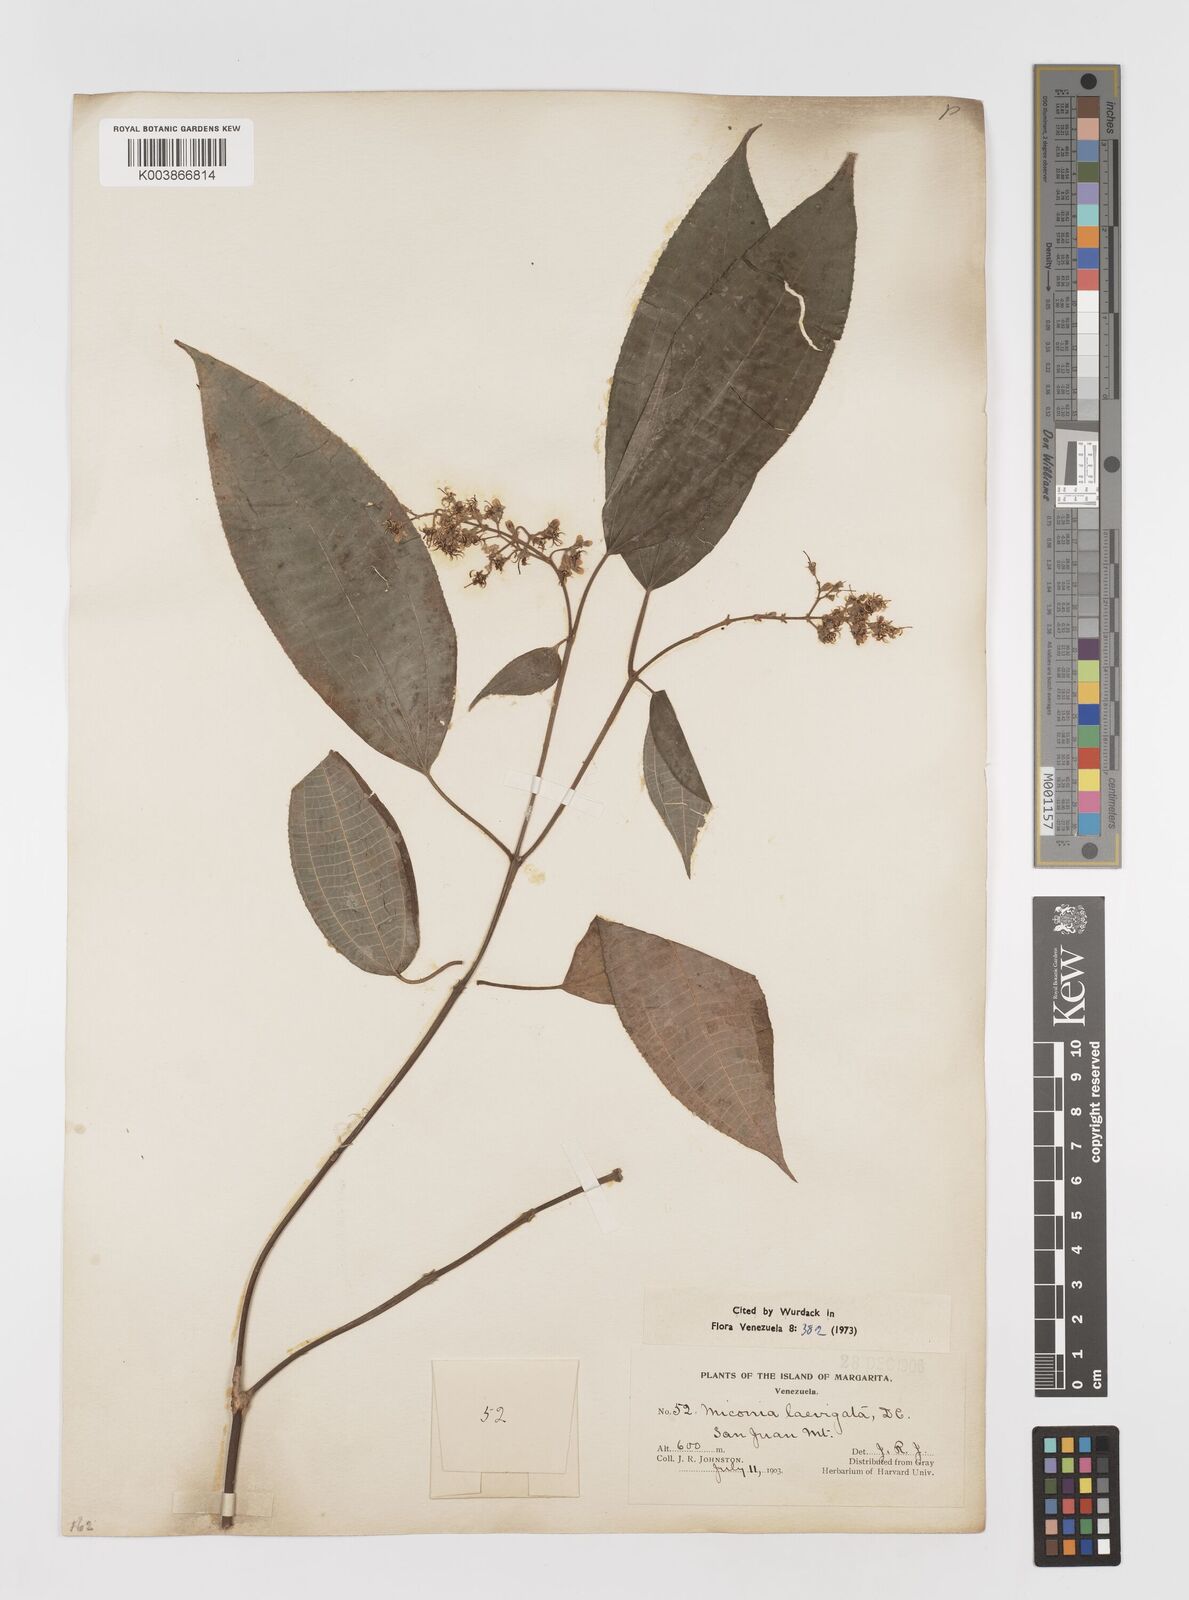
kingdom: Plantae
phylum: Tracheophyta
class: Magnoliopsida
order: Myrtales
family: Melastomataceae
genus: Miconia
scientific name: Miconia laevigata
